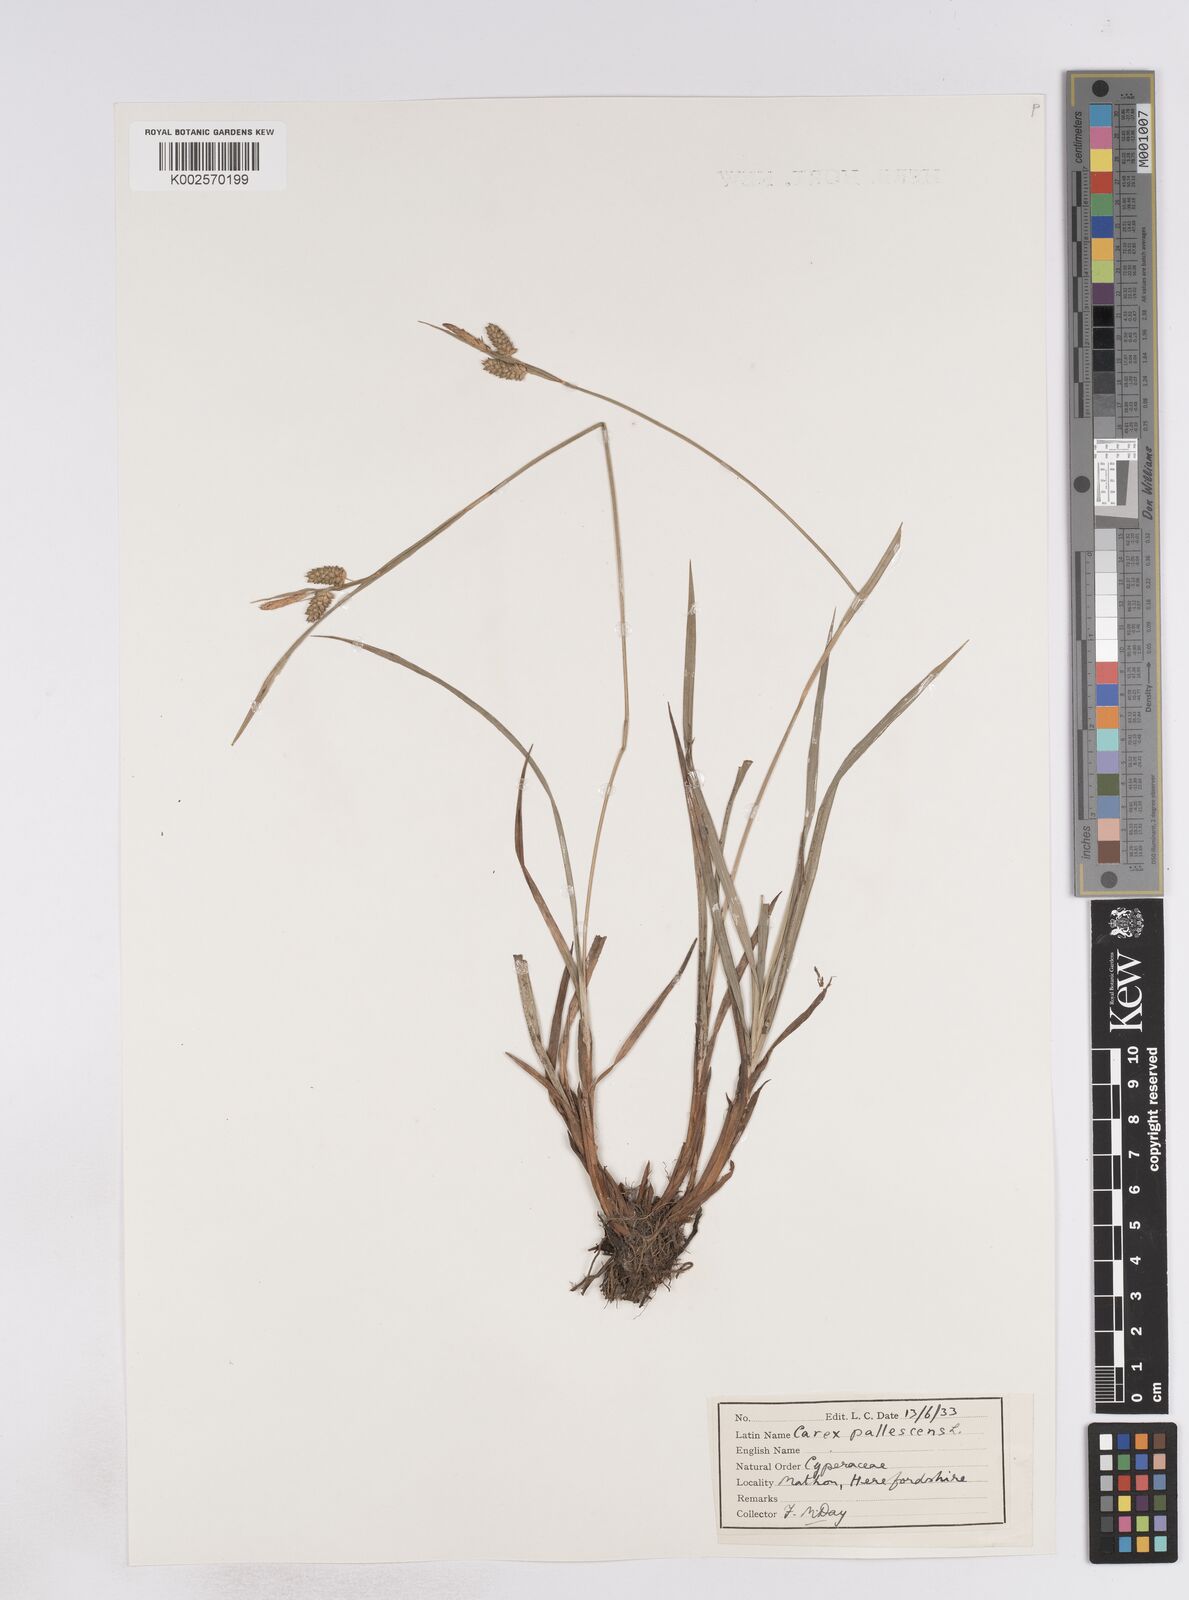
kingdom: Plantae
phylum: Tracheophyta
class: Liliopsida
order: Poales
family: Cyperaceae
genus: Carex
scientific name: Carex pallescens
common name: Pale sedge
